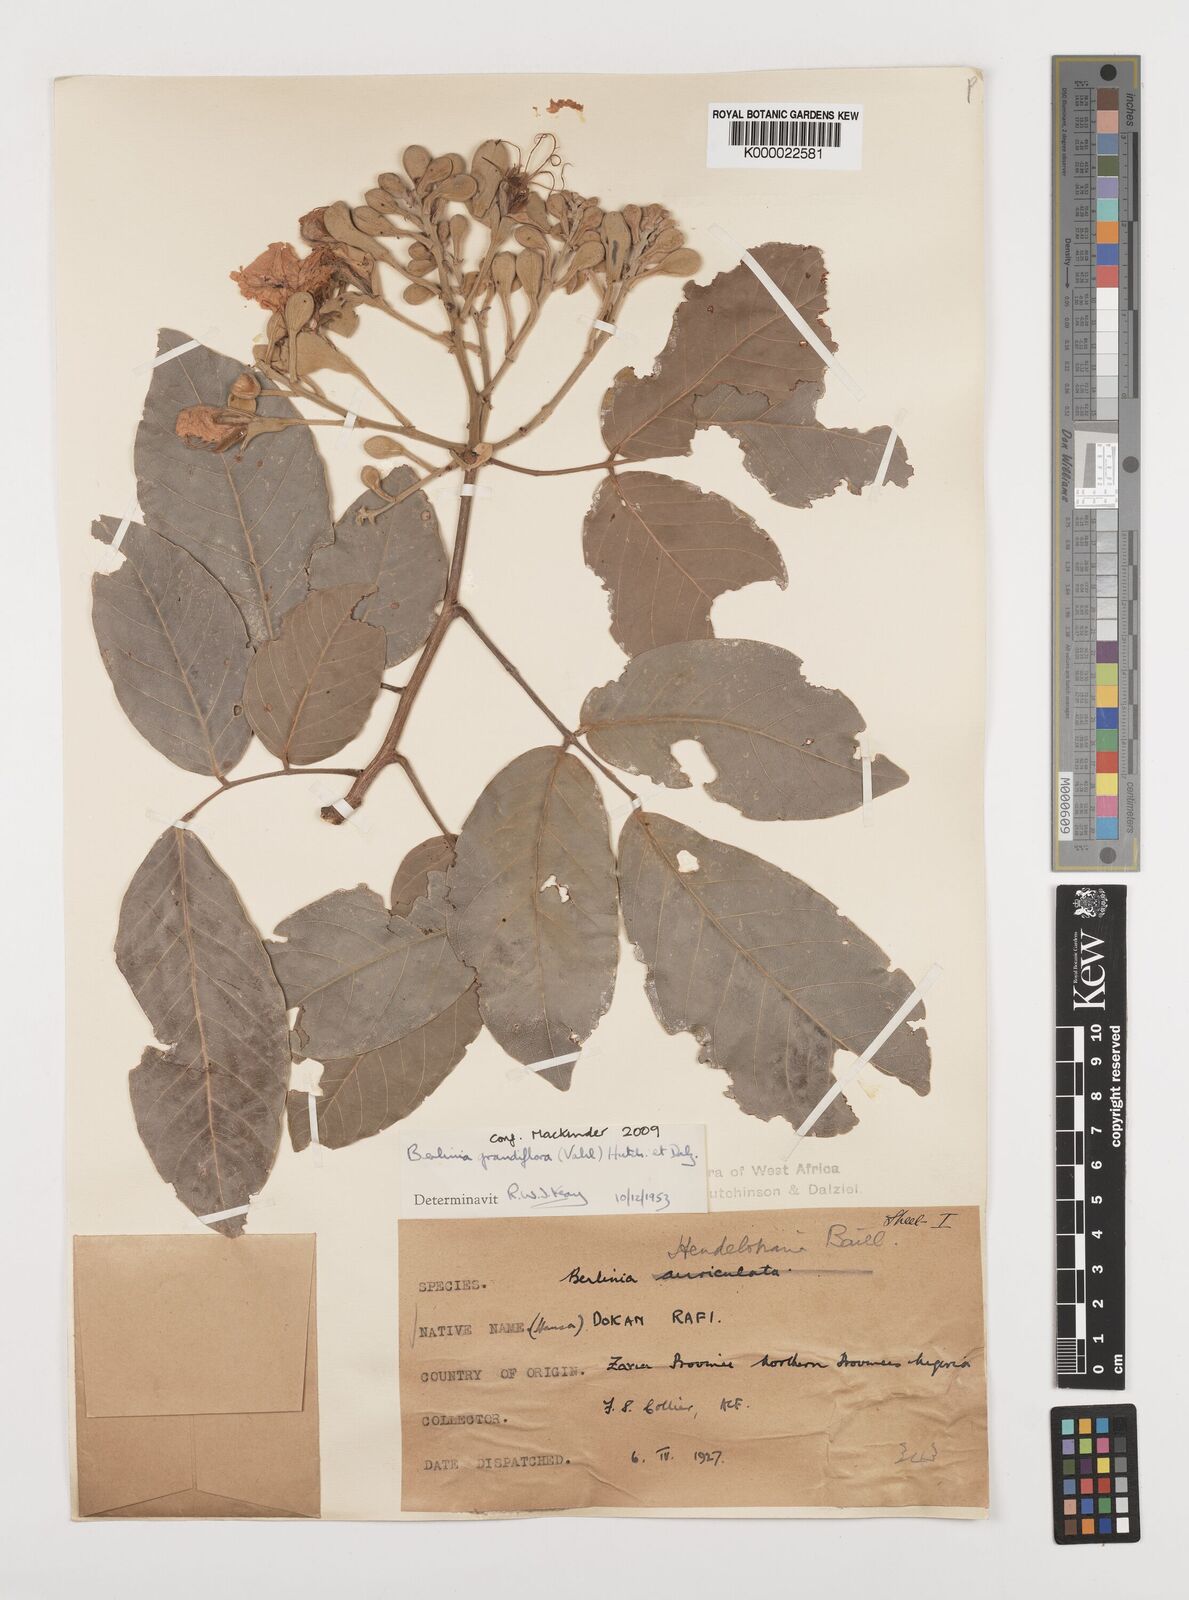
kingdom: Plantae
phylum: Tracheophyta
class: Magnoliopsida
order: Fabales
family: Fabaceae
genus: Berlinia
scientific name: Berlinia grandiflora
